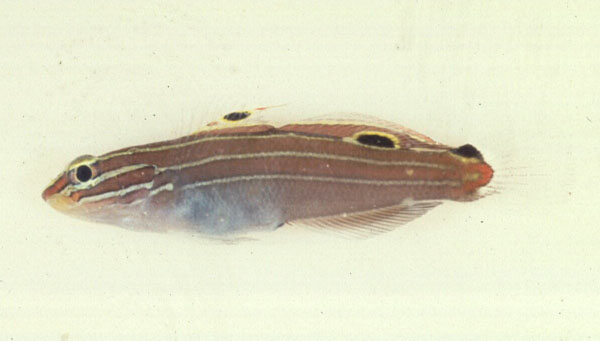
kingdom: Animalia
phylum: Chordata
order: Perciformes
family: Gobiidae
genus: Koumansetta
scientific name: Koumansetta hectori
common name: Hector's goby
